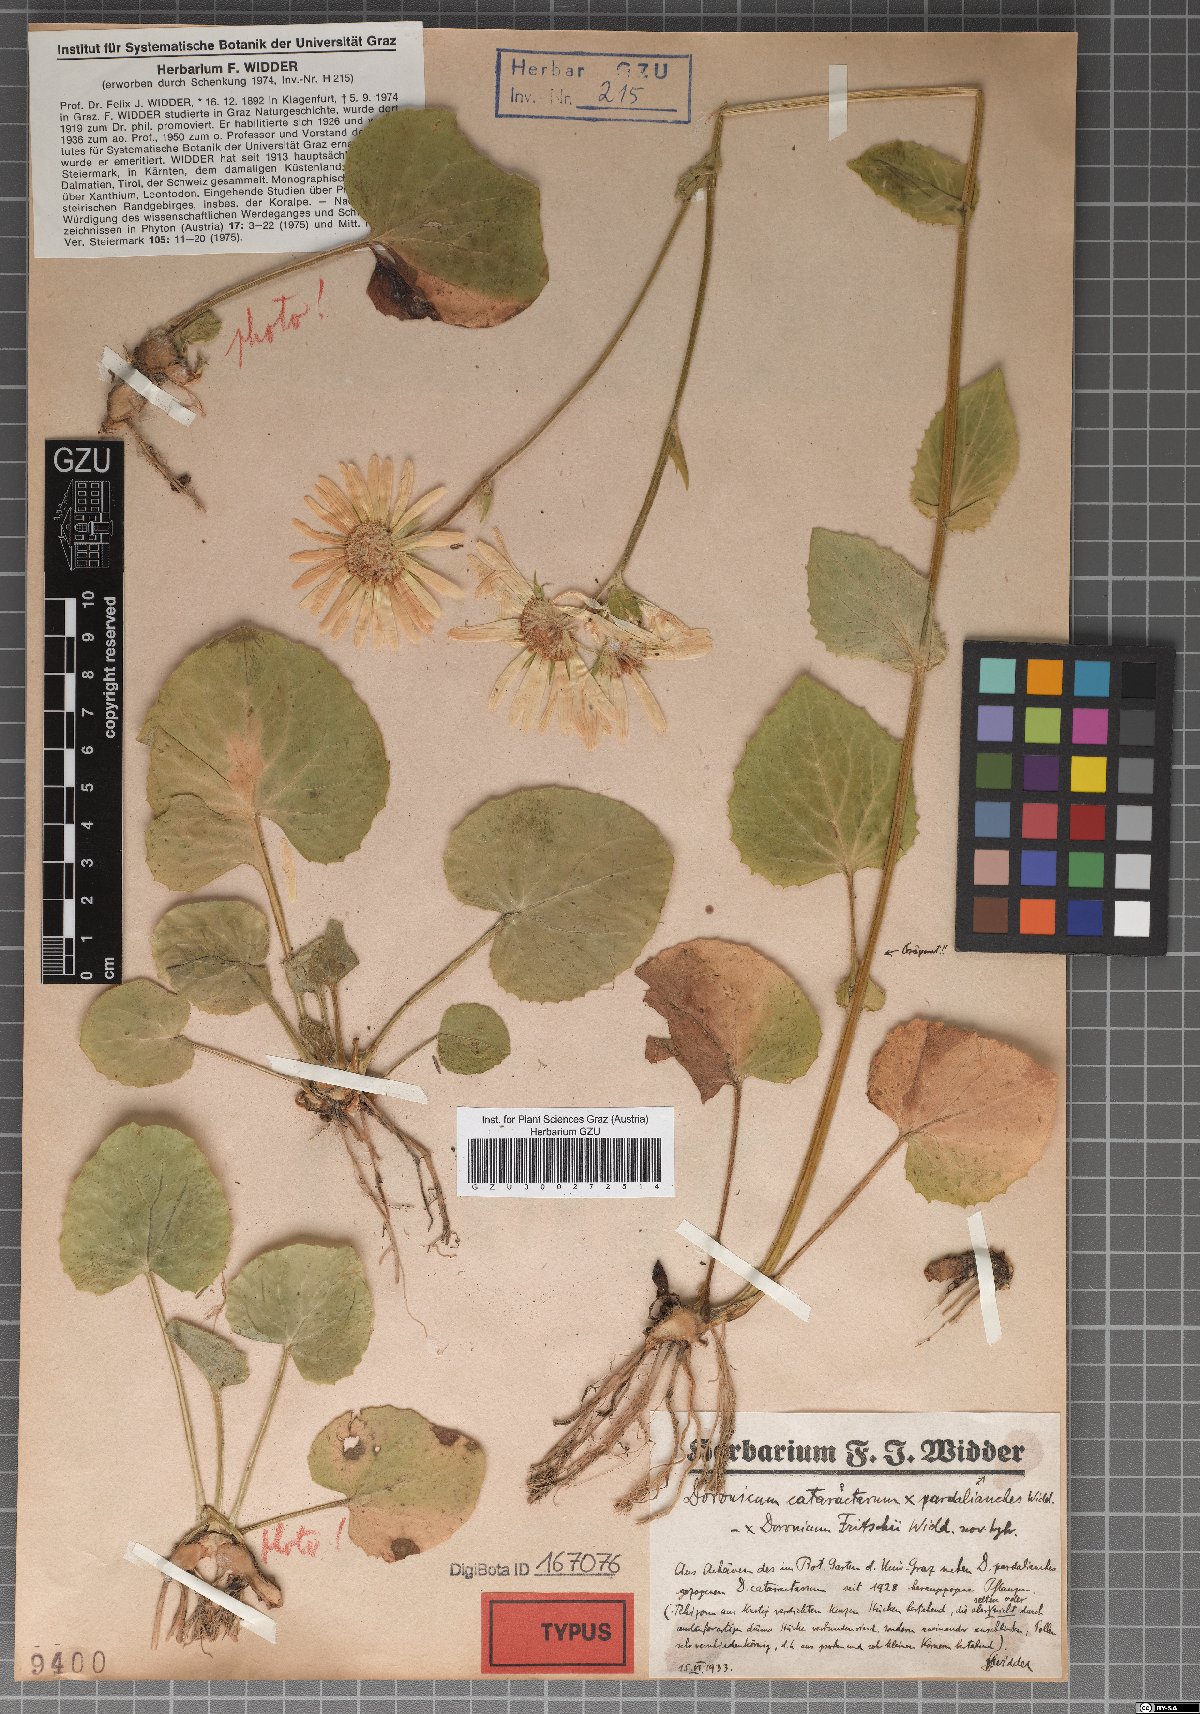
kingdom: Plantae
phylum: Tracheophyta
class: Magnoliopsida
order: Asterales
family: Asteraceae
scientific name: Asteraceae
